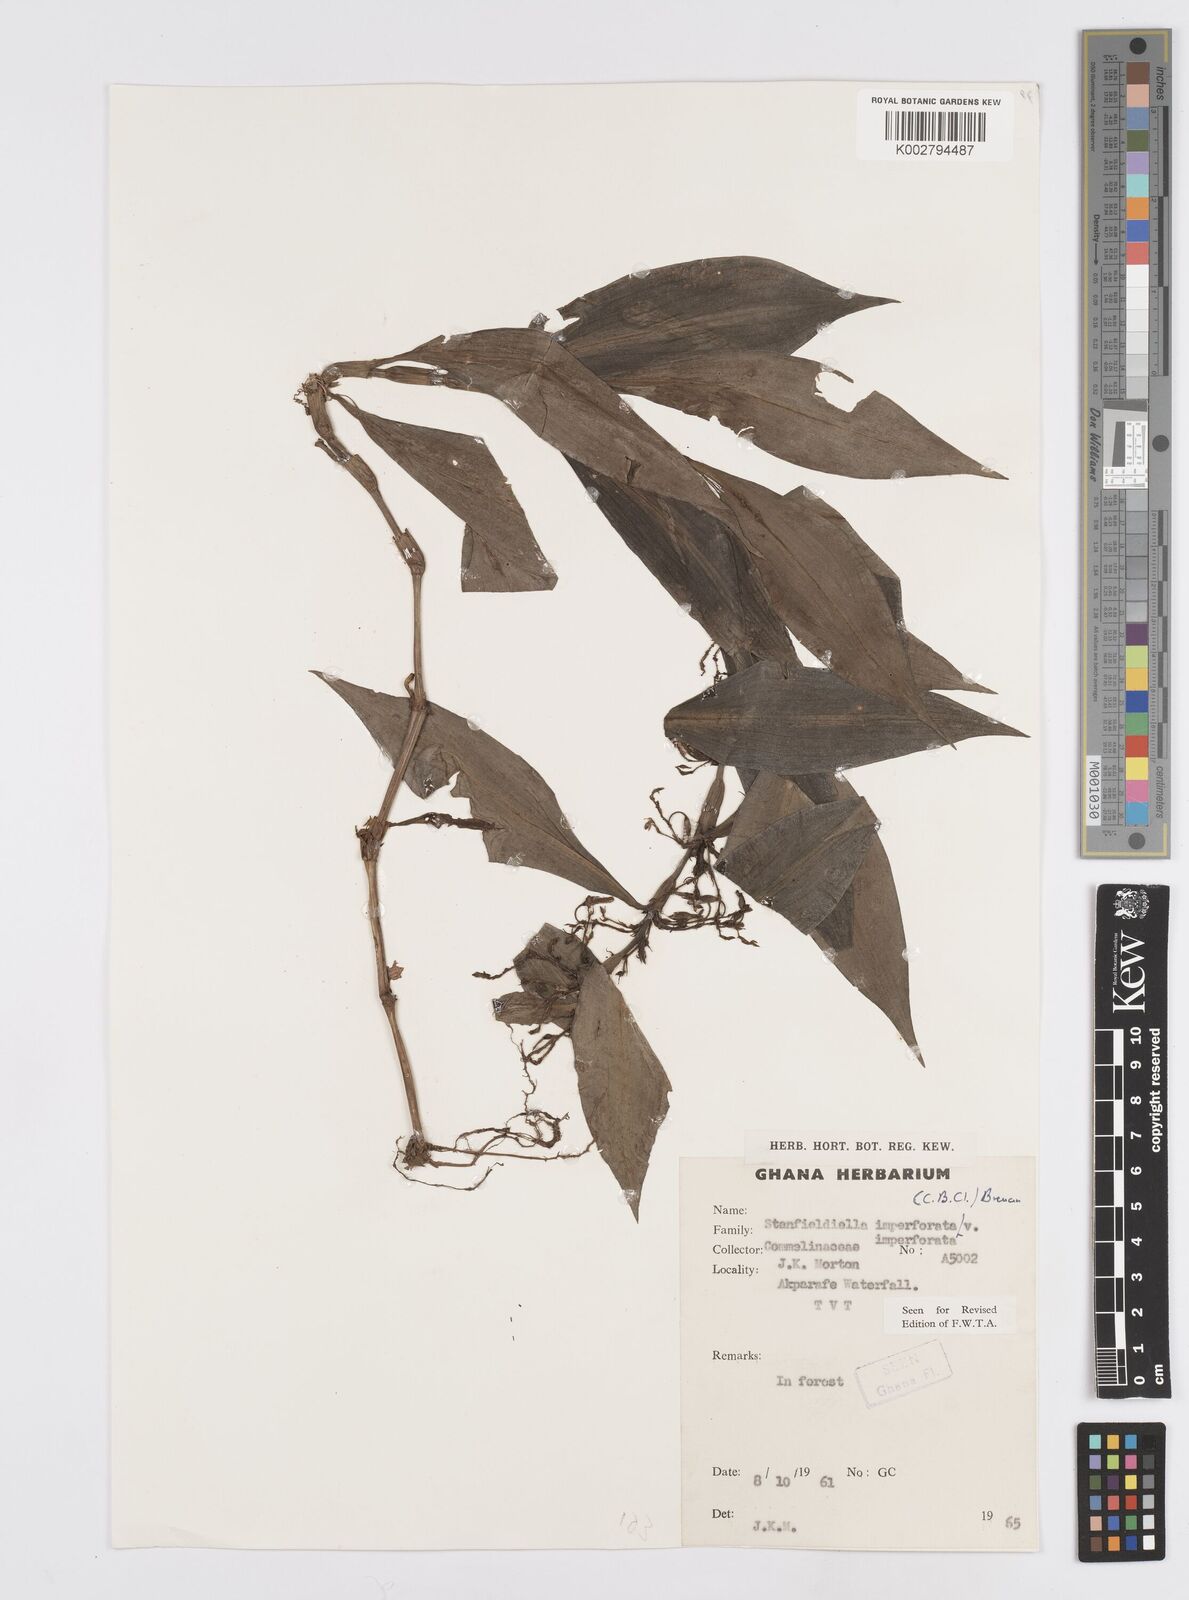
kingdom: Plantae
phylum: Tracheophyta
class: Liliopsida
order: Commelinales
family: Commelinaceae
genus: Stanfieldiella
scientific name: Stanfieldiella imperforata
